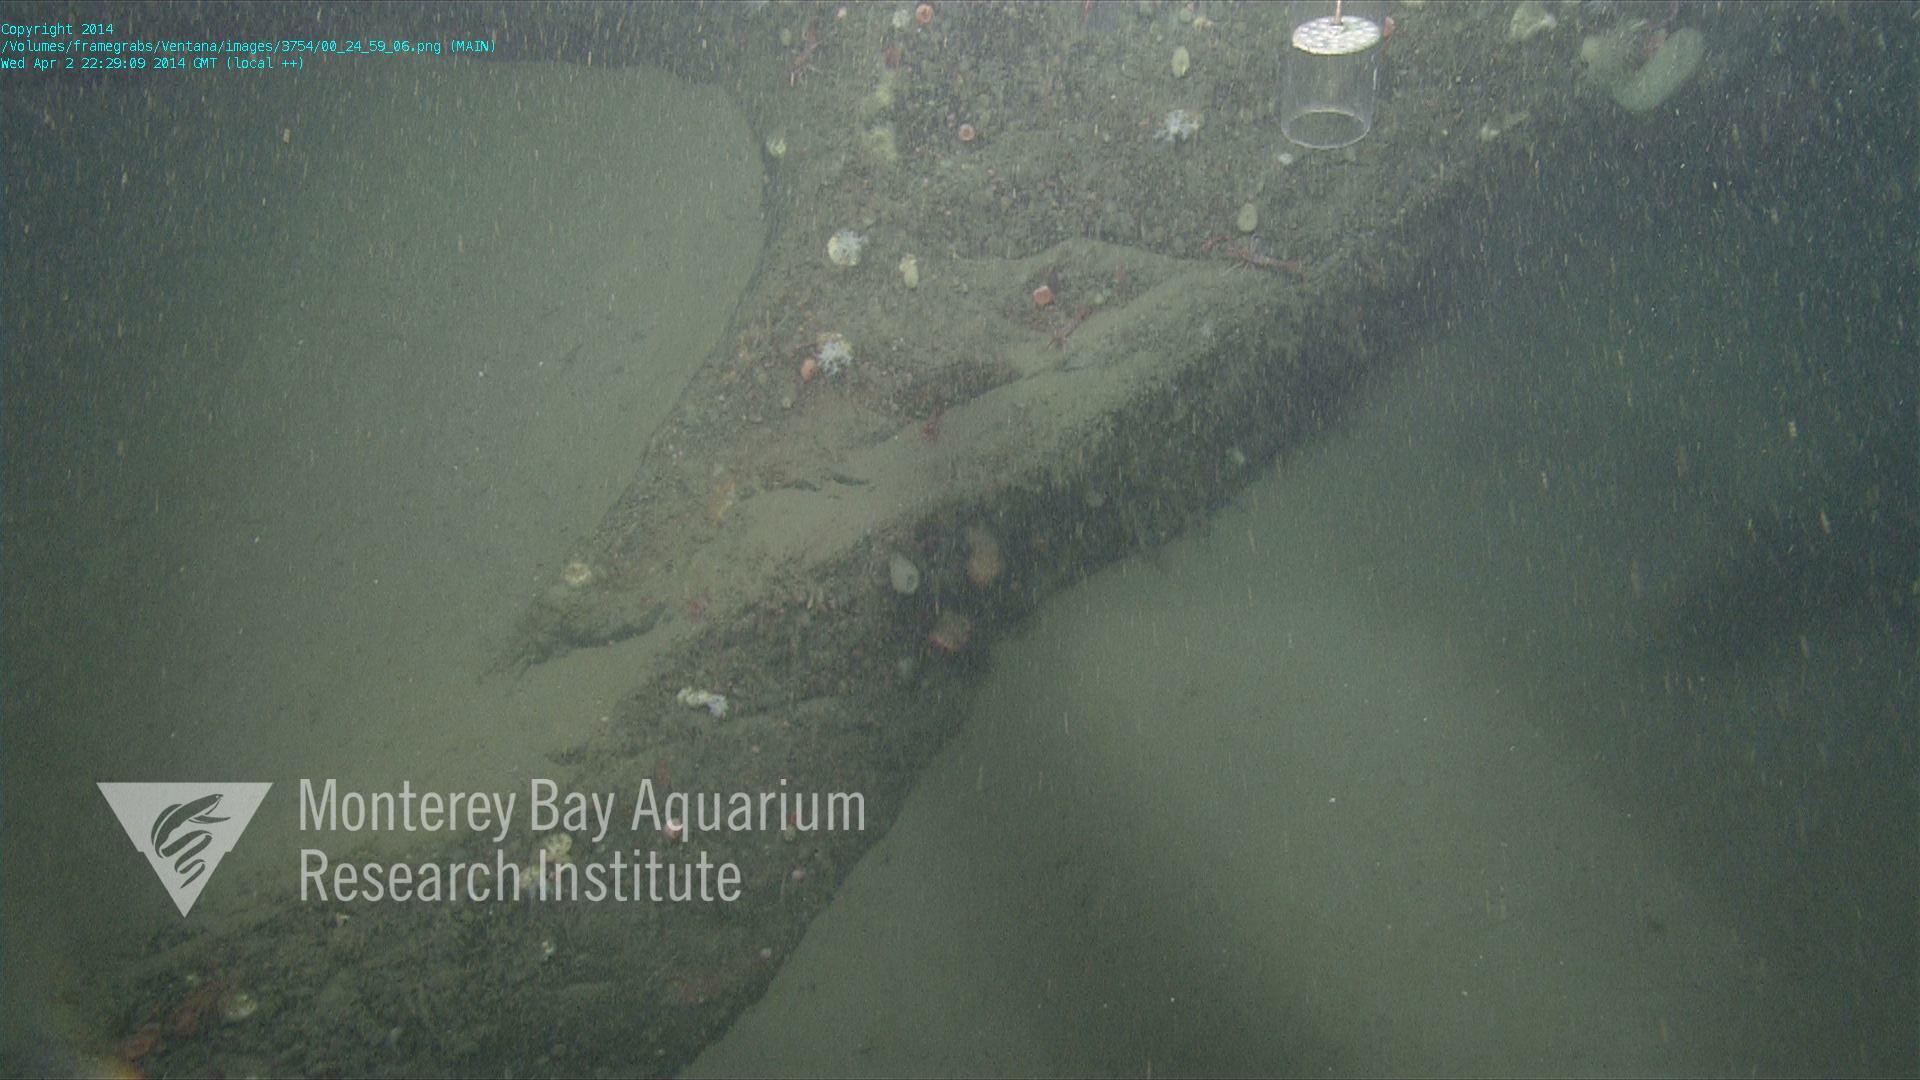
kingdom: Animalia
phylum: Porifera
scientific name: Porifera
